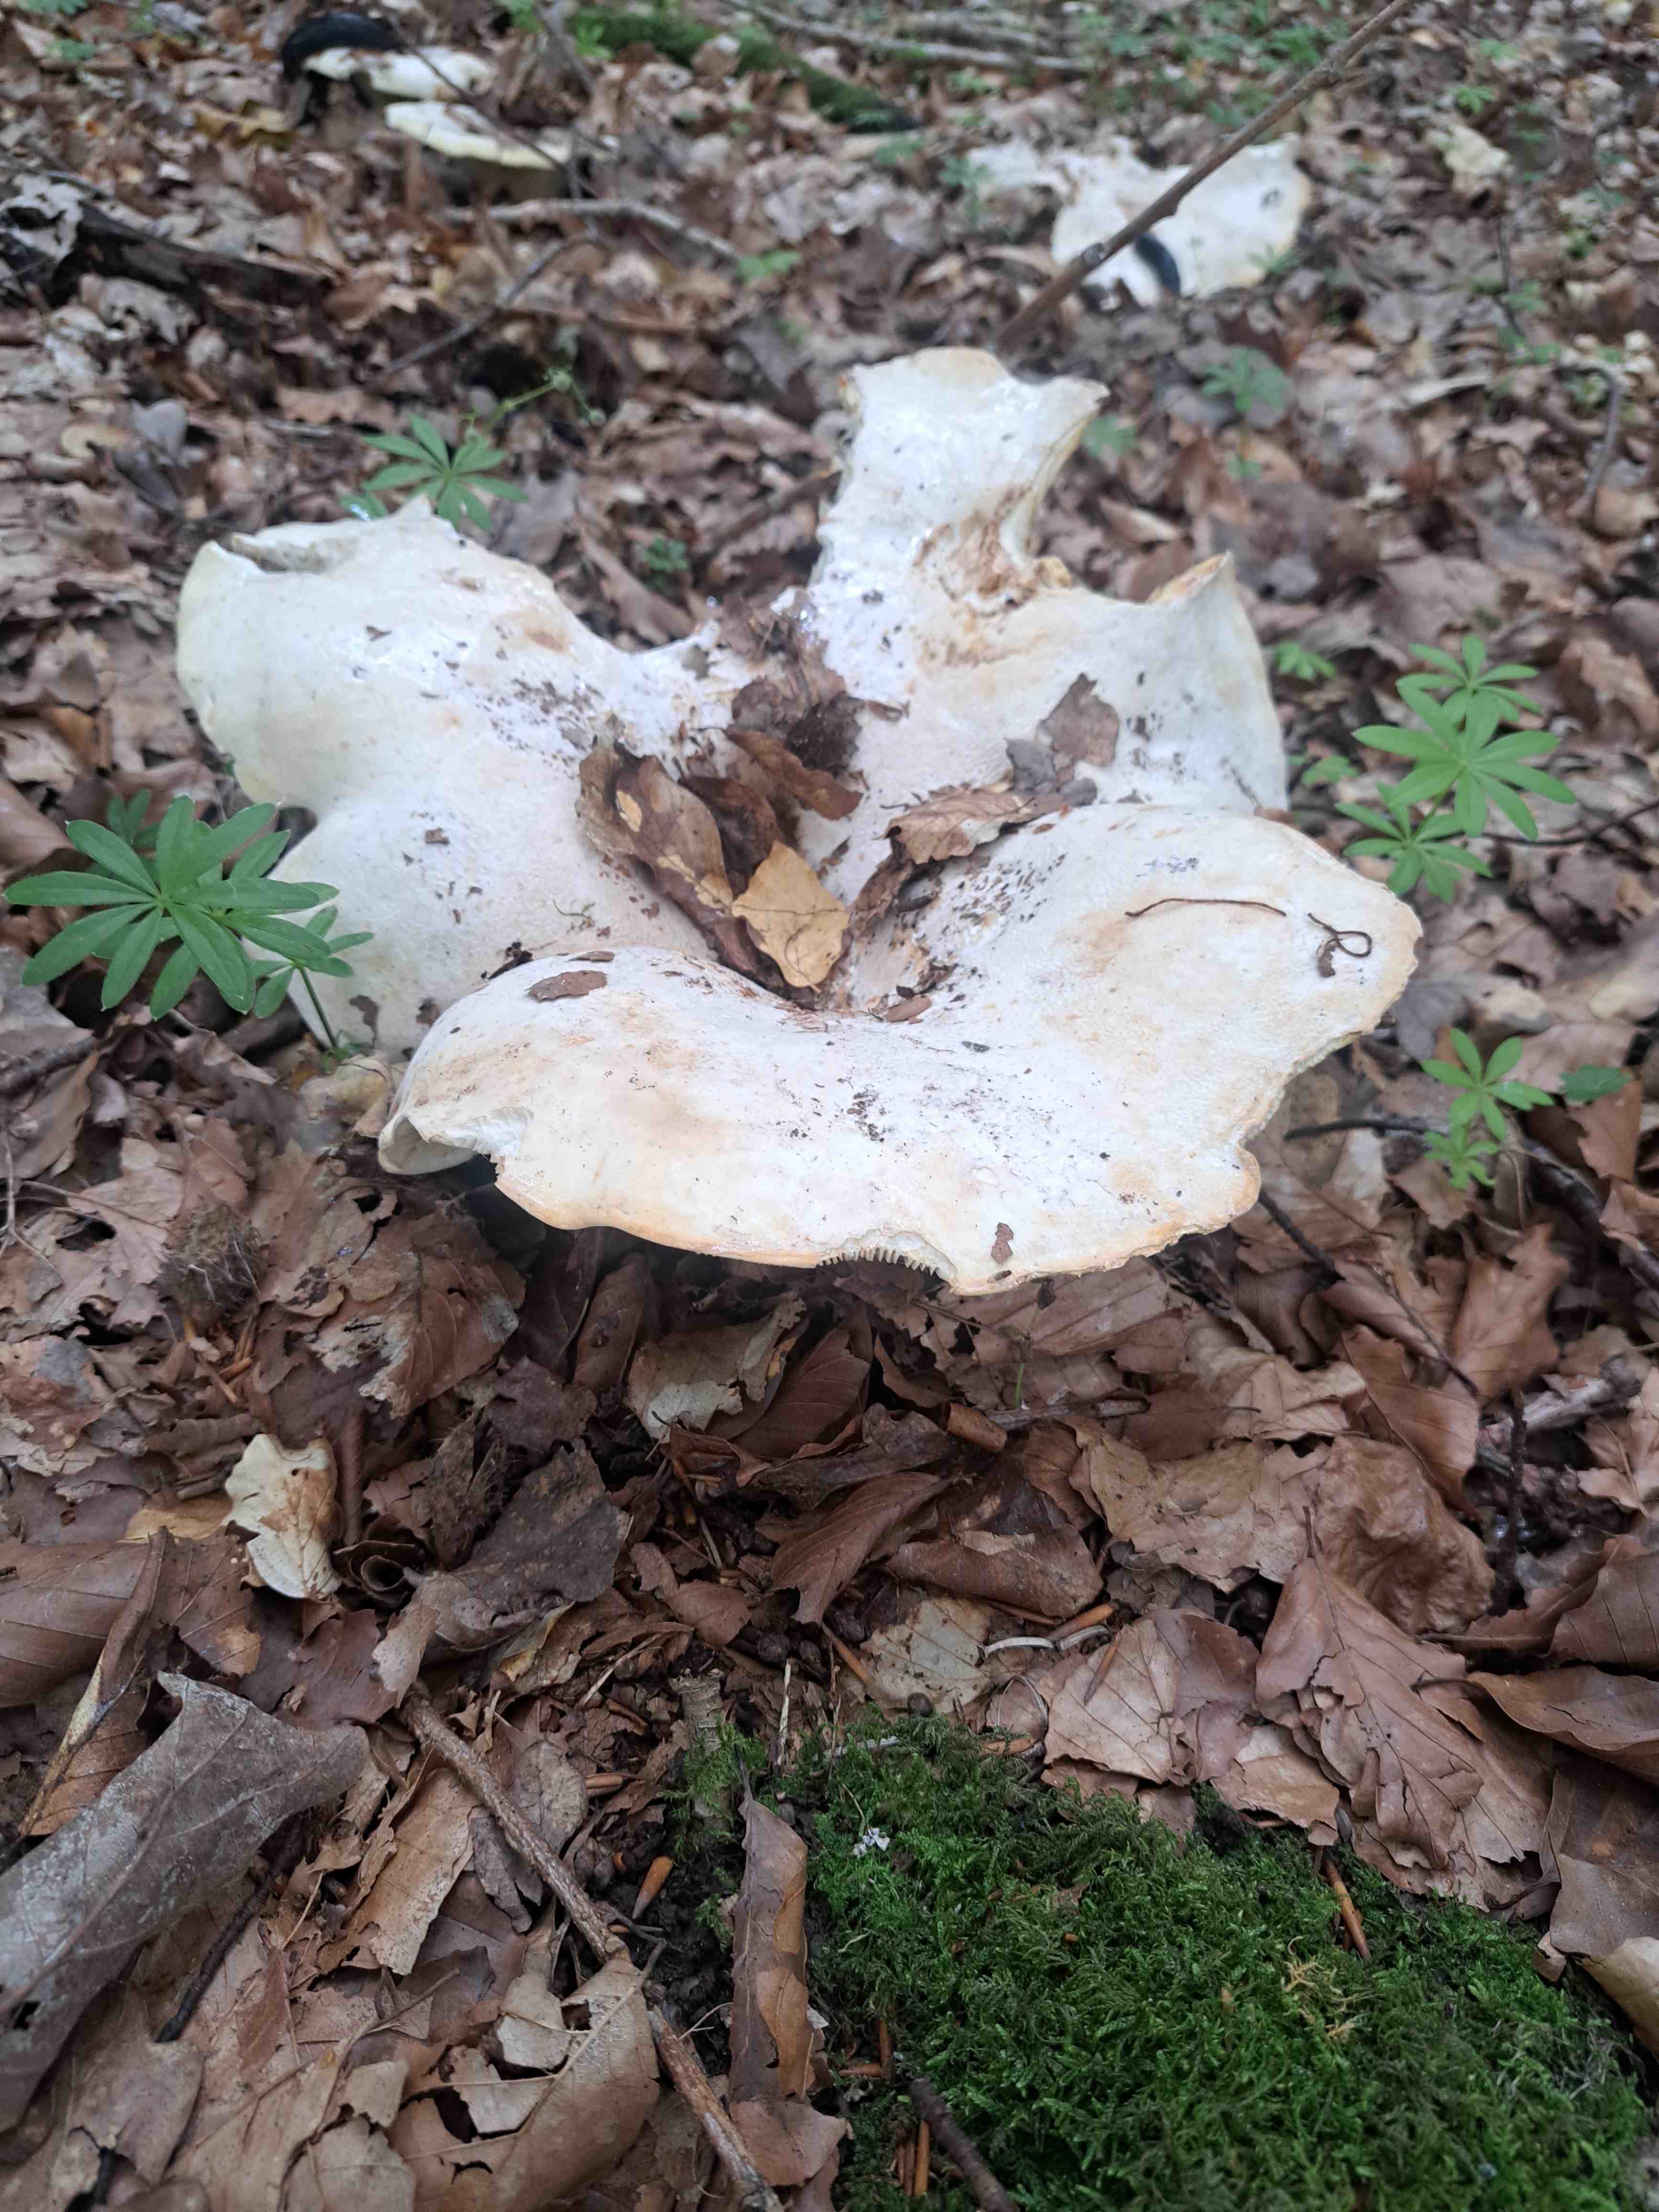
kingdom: Fungi
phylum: Basidiomycota
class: Agaricomycetes
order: Russulales
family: Russulaceae
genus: Lactifluus
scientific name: Lactifluus vellereus
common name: hvidfiltet mælkehat
